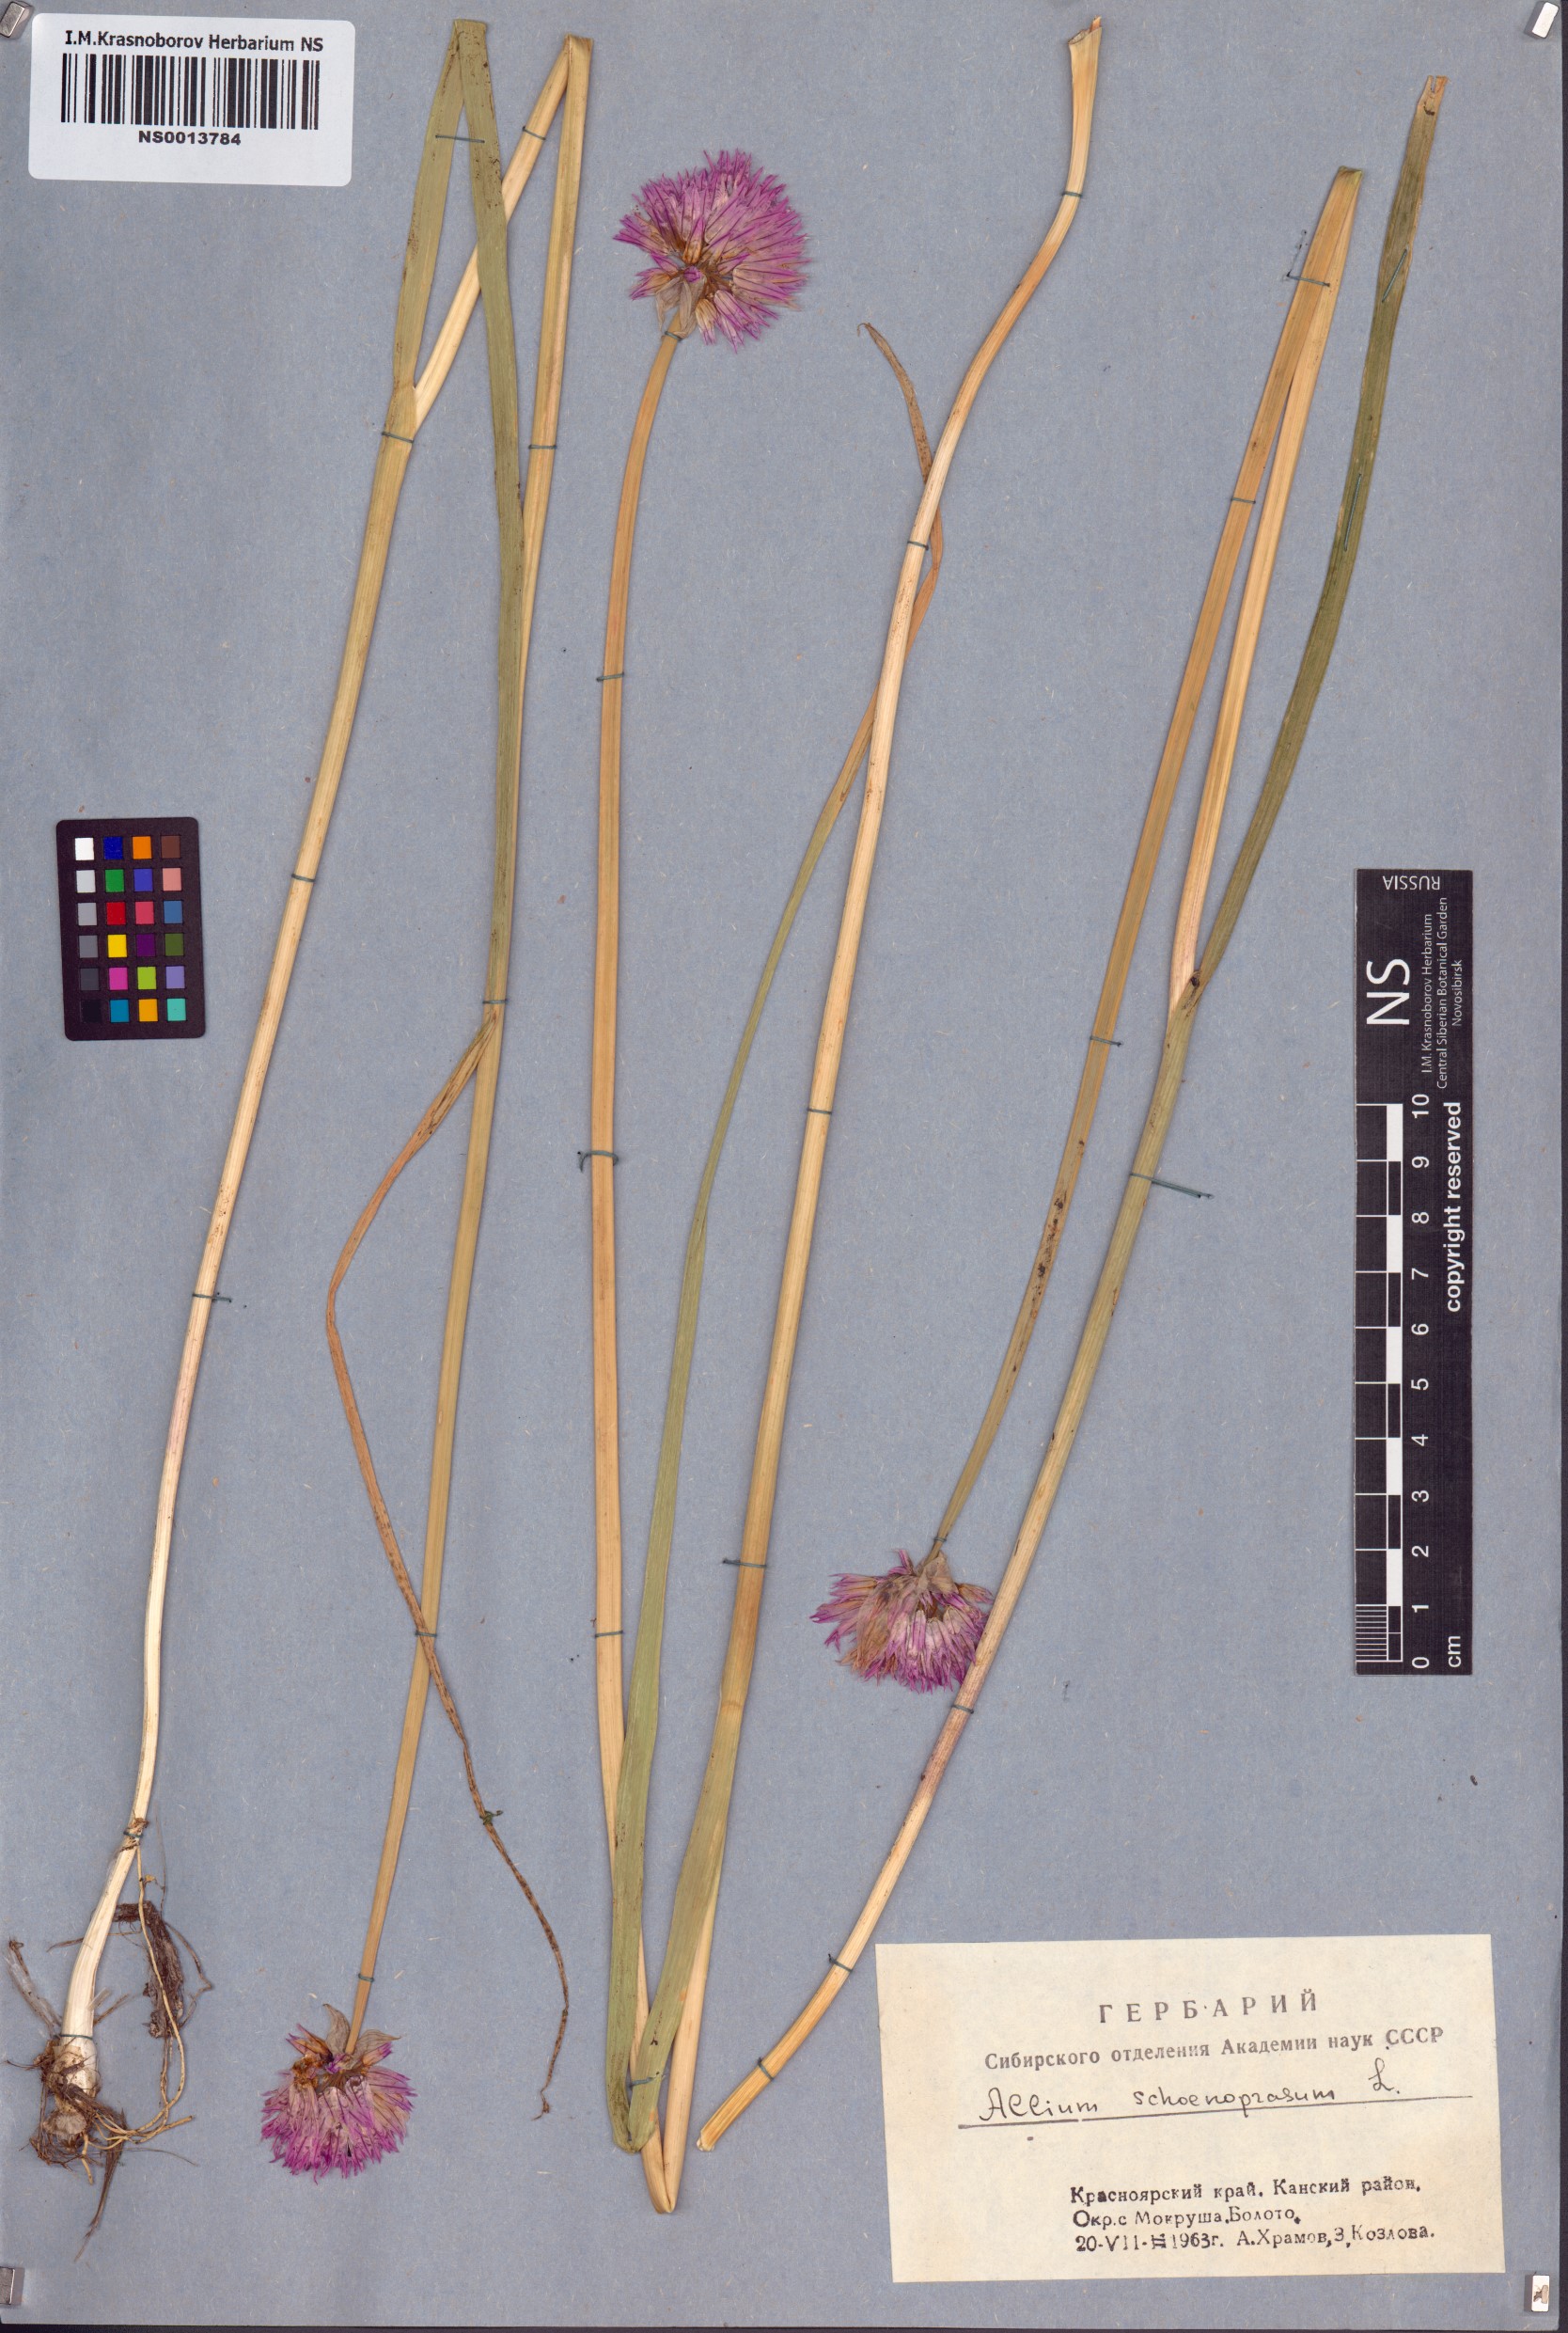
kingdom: Plantae
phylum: Tracheophyta
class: Liliopsida
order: Asparagales
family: Amaryllidaceae
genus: Allium
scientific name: Allium schoenoprasum
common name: Chives
